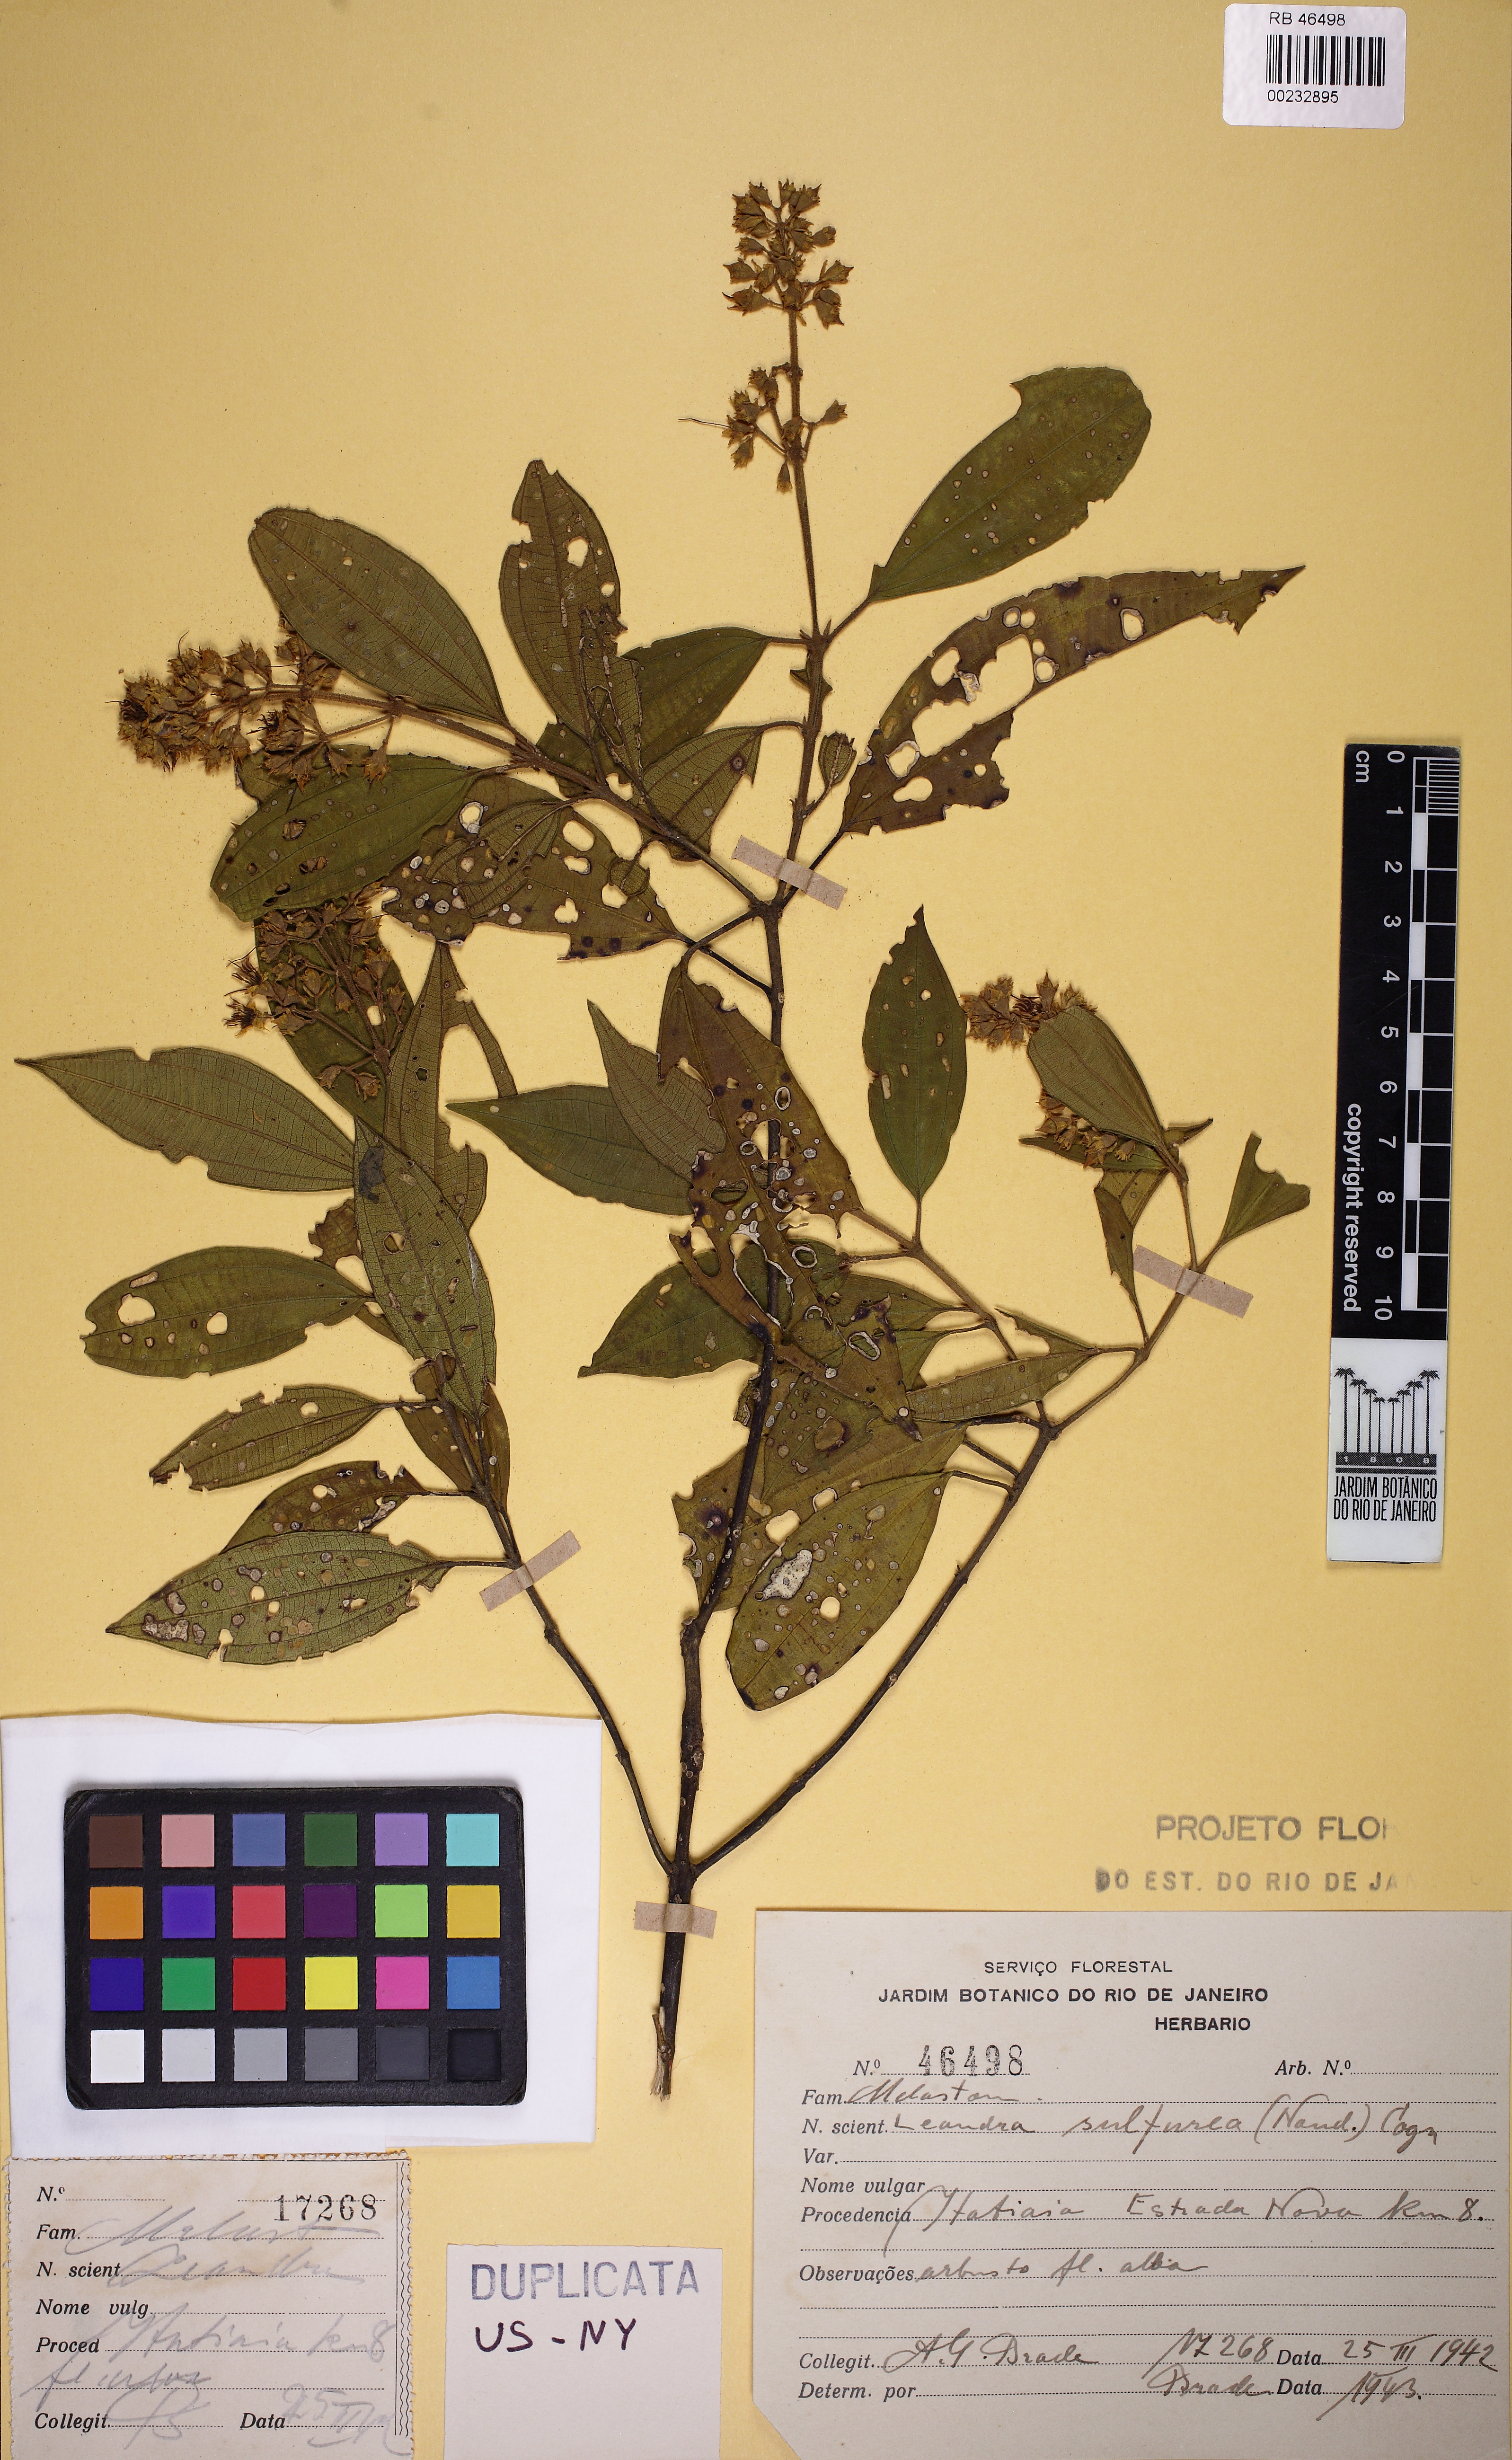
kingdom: Plantae
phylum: Tracheophyta
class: Magnoliopsida
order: Myrtales
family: Melastomataceae
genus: Miconia
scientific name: Miconia sulfurea
